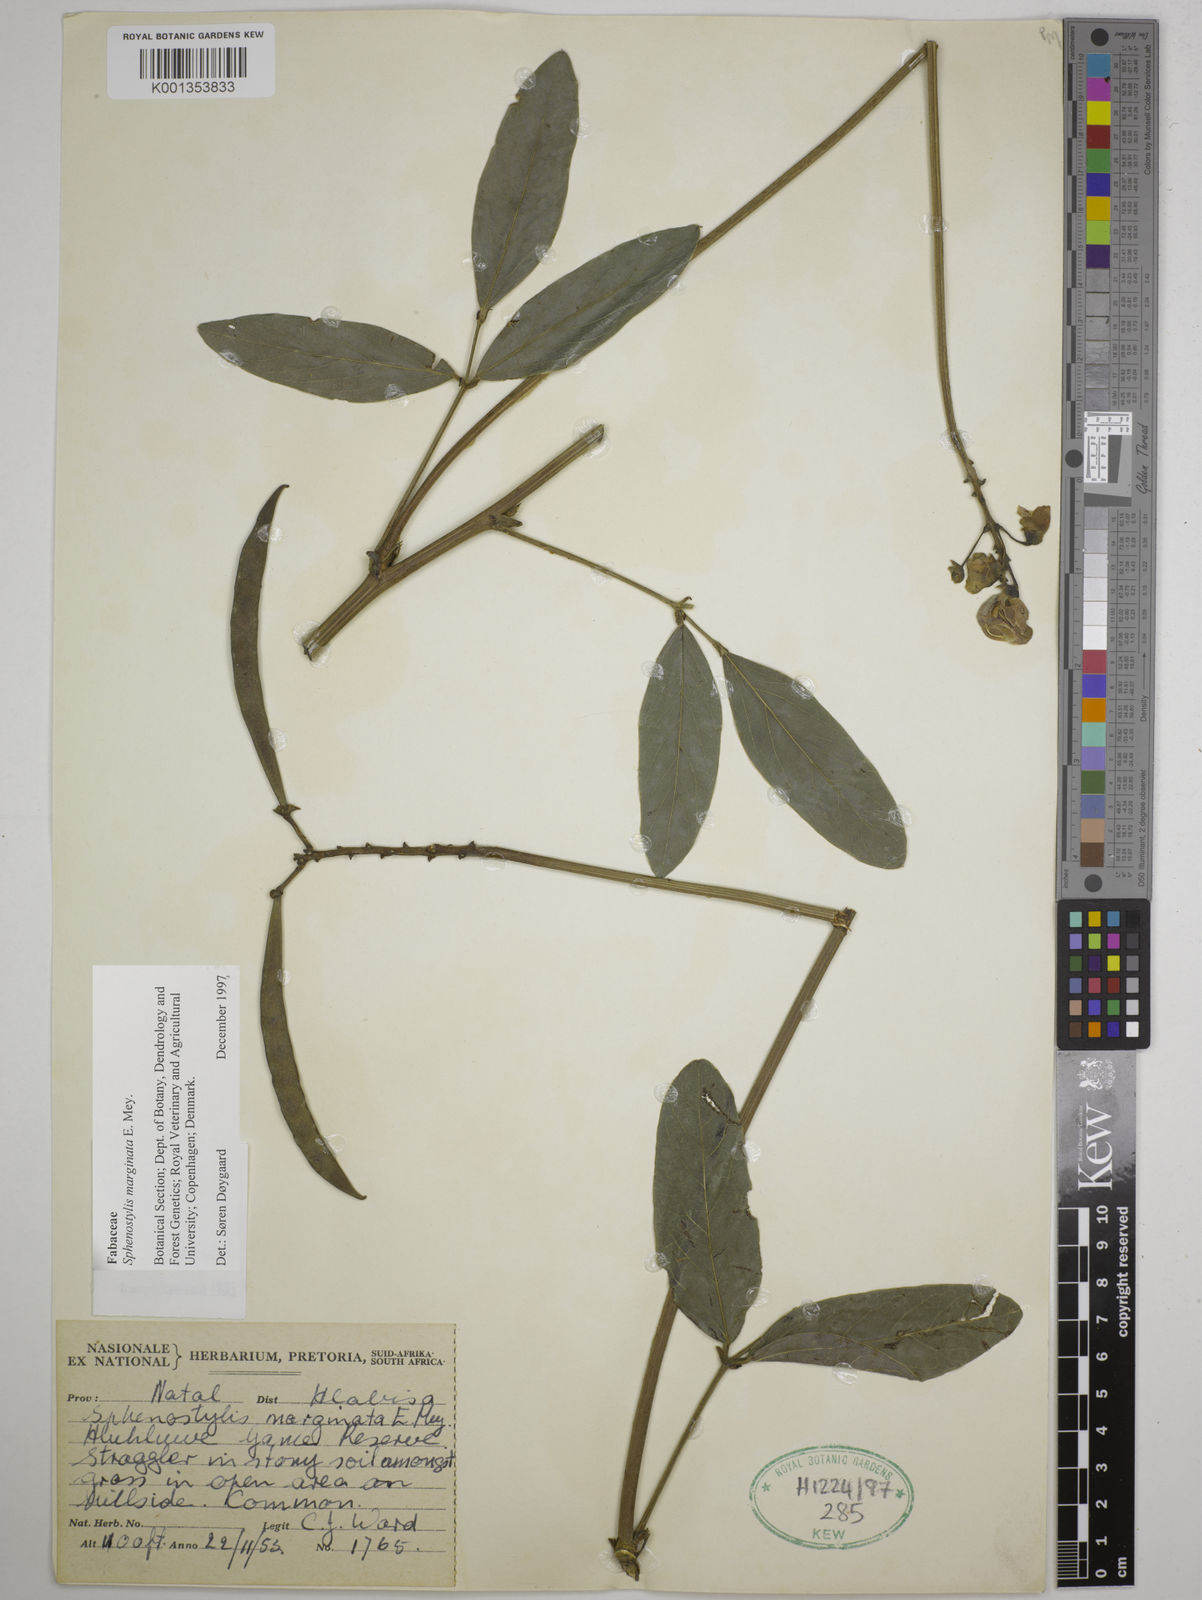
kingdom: Plantae
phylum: Tracheophyta
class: Magnoliopsida
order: Fabales
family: Fabaceae
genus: Sphenostylis
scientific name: Sphenostylis marginata
